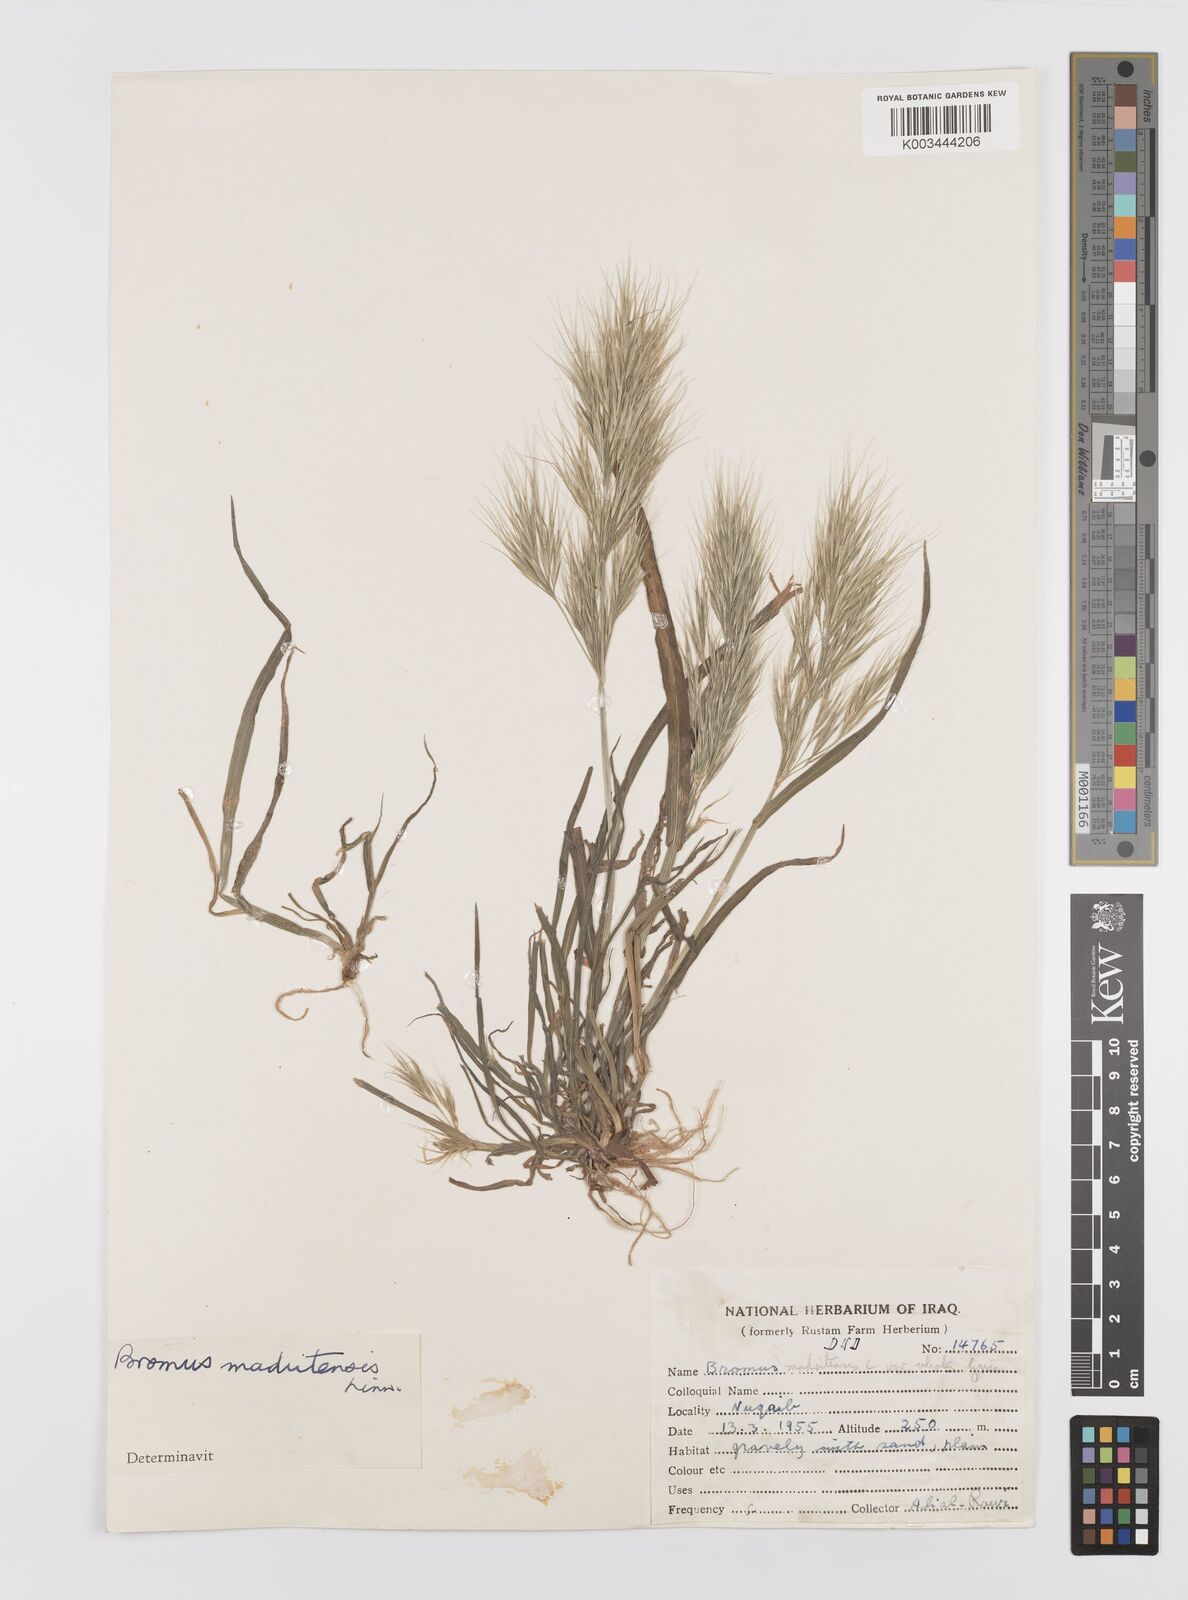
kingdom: Plantae
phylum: Tracheophyta
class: Liliopsida
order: Poales
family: Poaceae
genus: Bromus
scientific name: Bromus madritensis
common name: Compact brome
